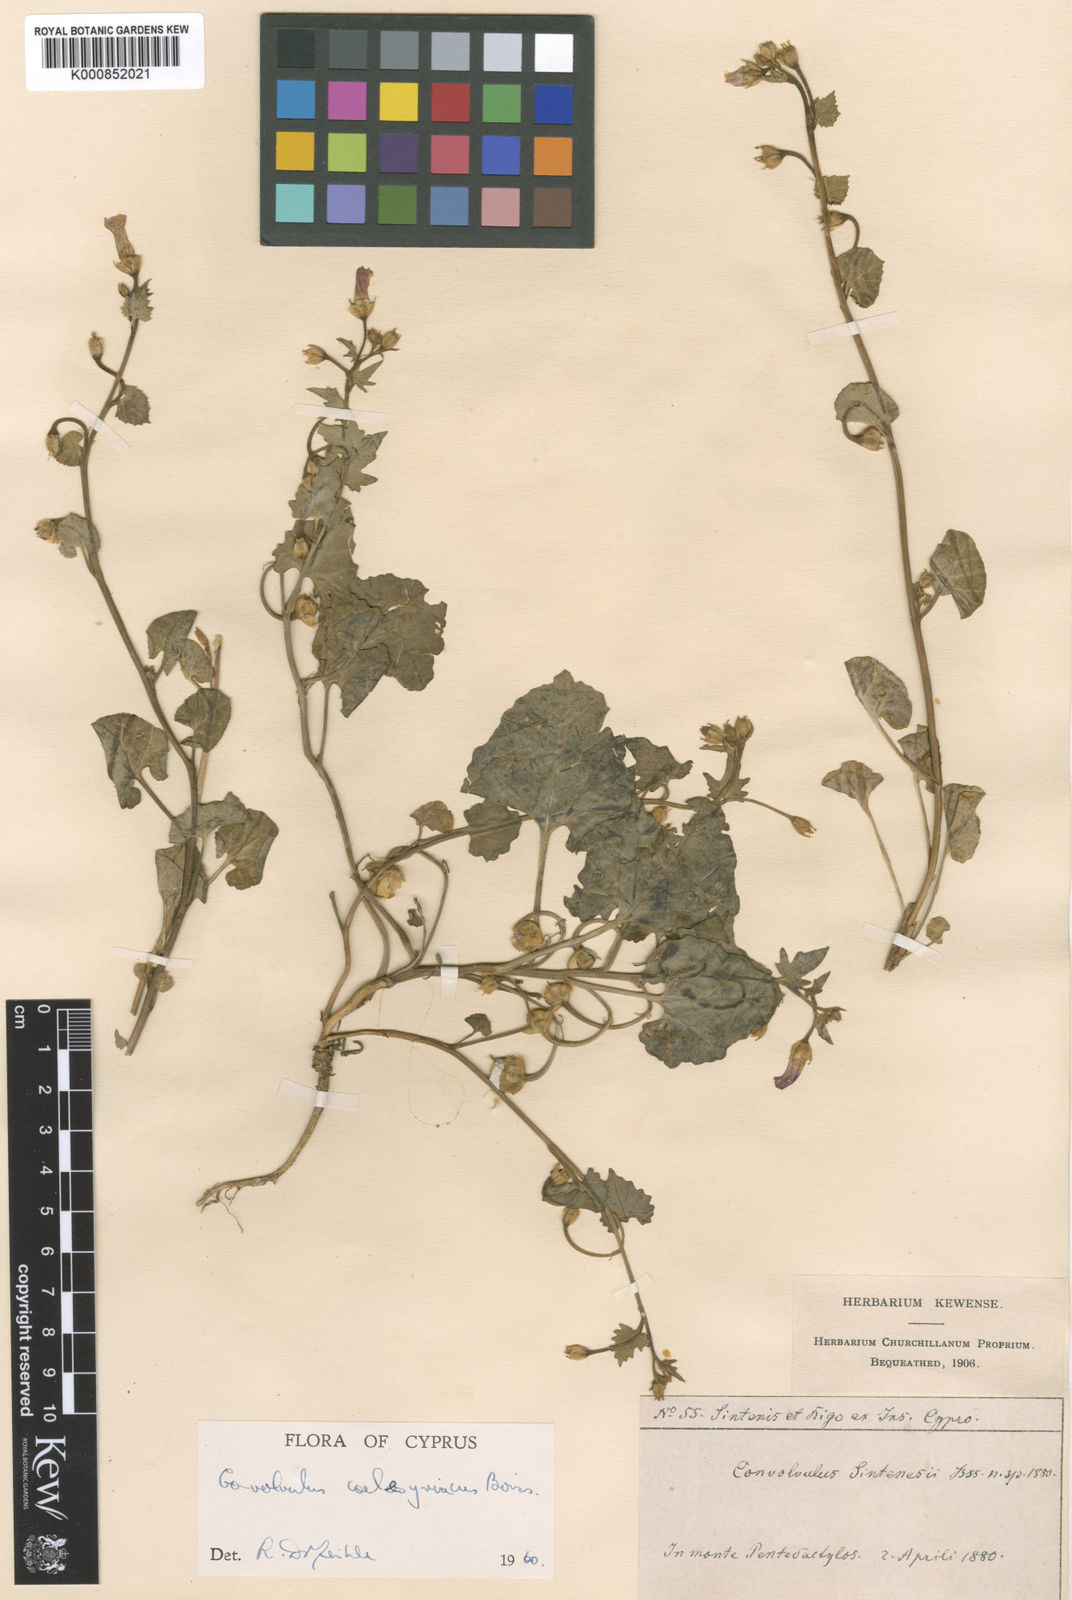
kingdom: Plantae
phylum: Tracheophyta
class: Magnoliopsida
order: Solanales
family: Convolvulaceae
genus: Convolvulus
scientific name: Convolvulus coelesyriacus
